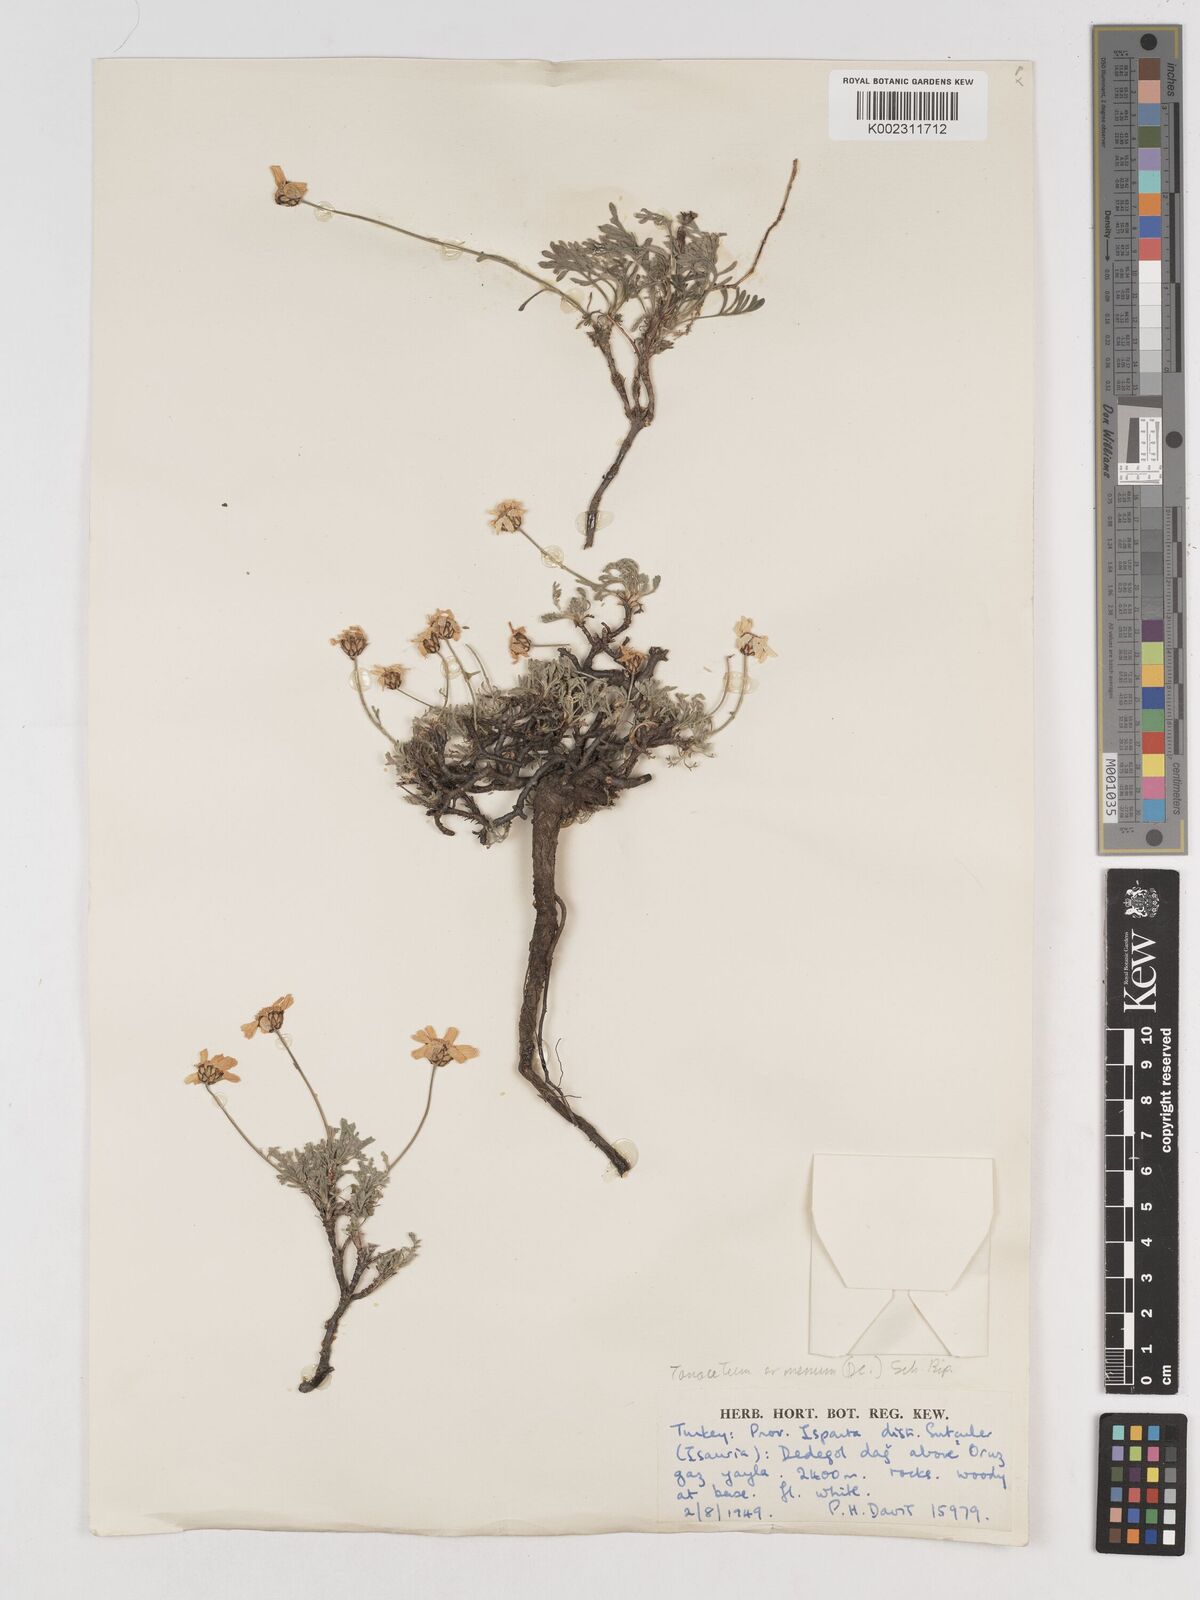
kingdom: Plantae
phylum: Tracheophyta
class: Magnoliopsida
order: Asterales
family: Asteraceae
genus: Tanacetum
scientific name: Tanacetum armenum
